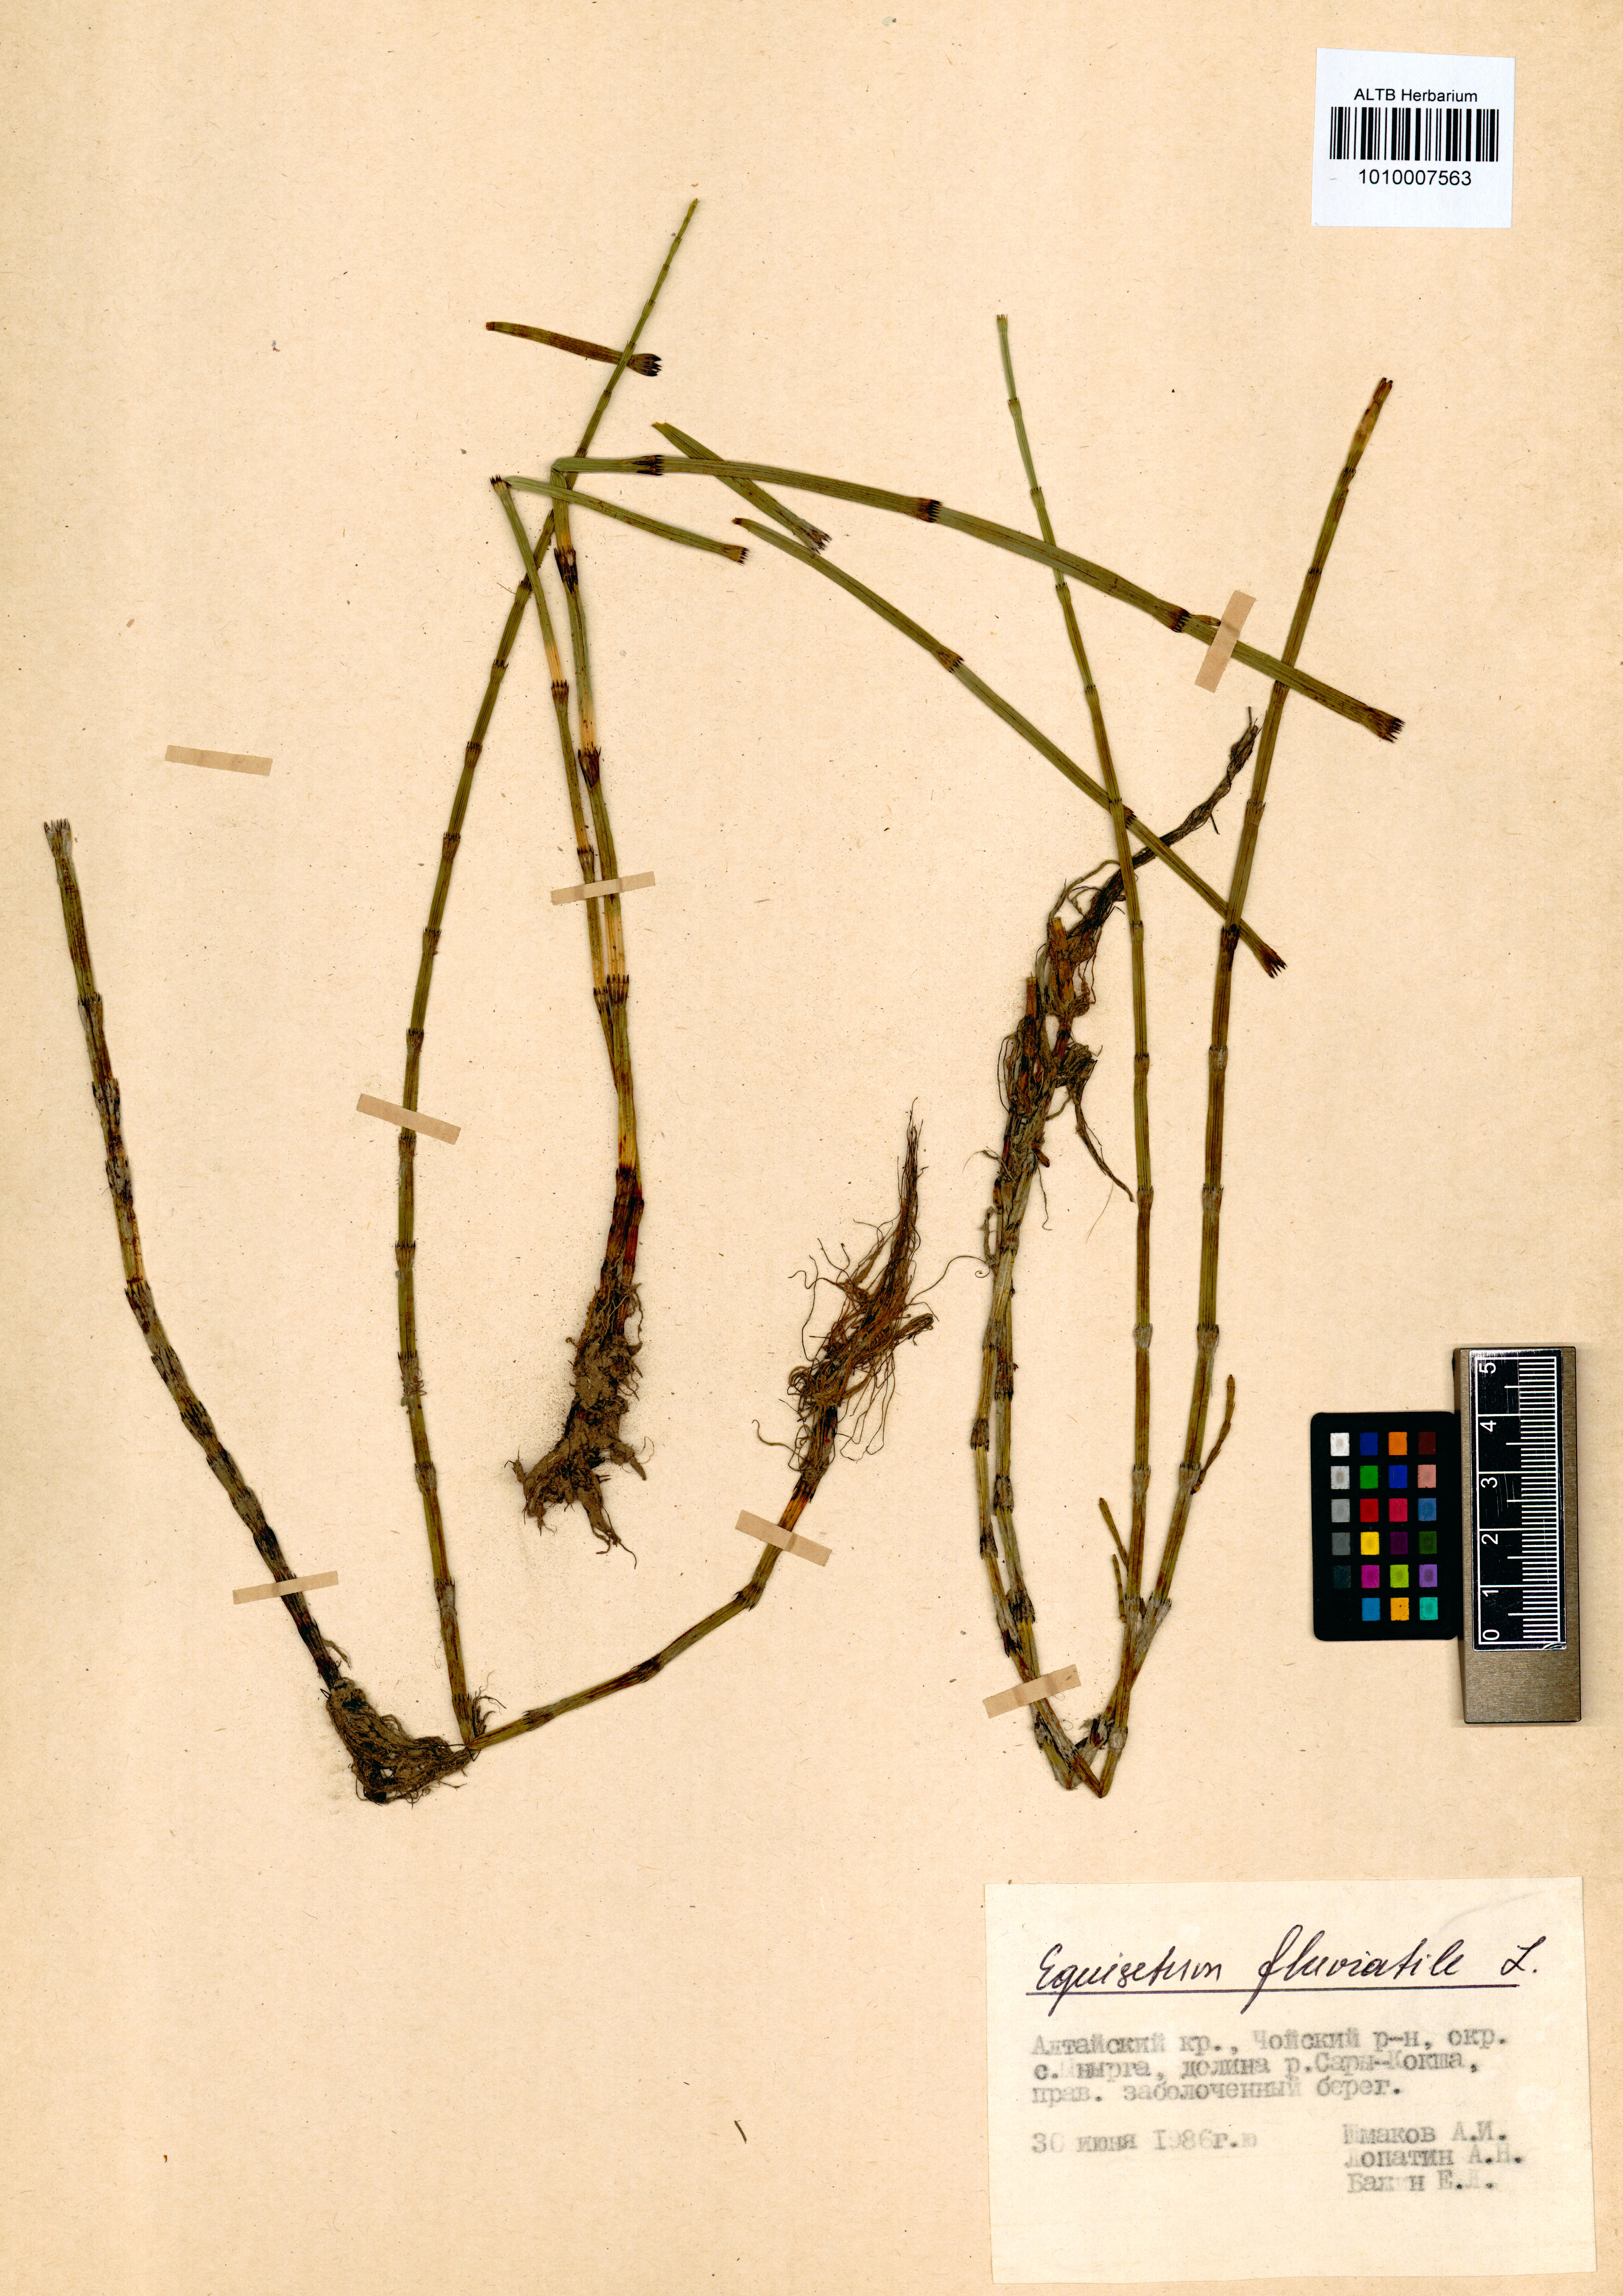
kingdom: Plantae
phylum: Tracheophyta
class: Polypodiopsida
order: Equisetales
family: Equisetaceae
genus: Equisetum
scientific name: Equisetum fluviatile
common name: Water horsetail
